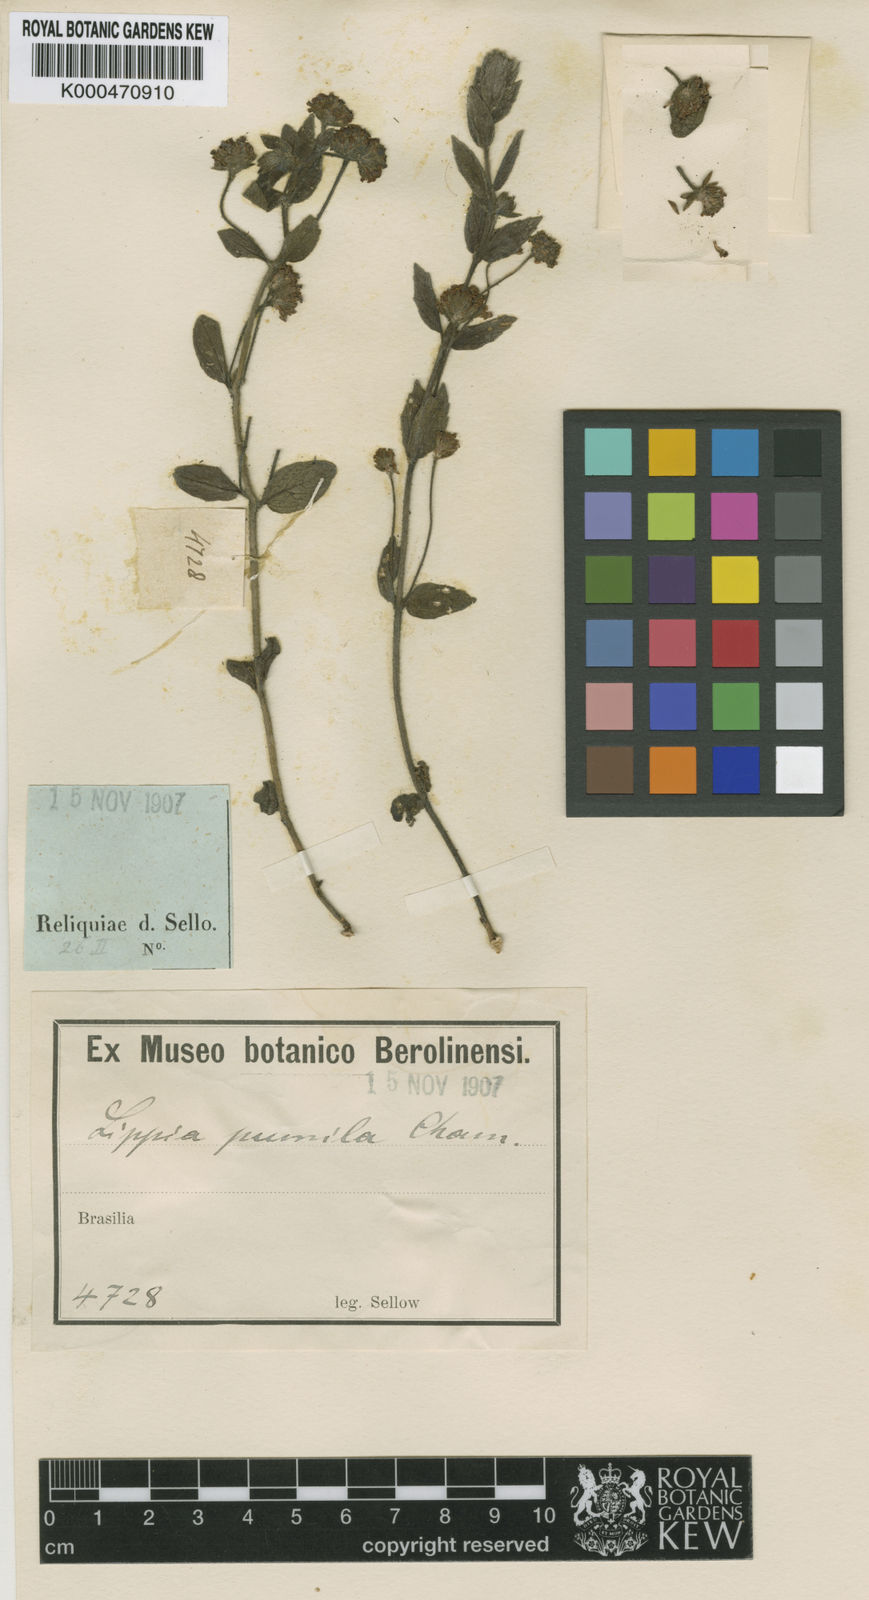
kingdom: Plantae
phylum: Tracheophyta
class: Magnoliopsida
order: Lamiales
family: Verbenaceae
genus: Lippia
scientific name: Lippia pumila
